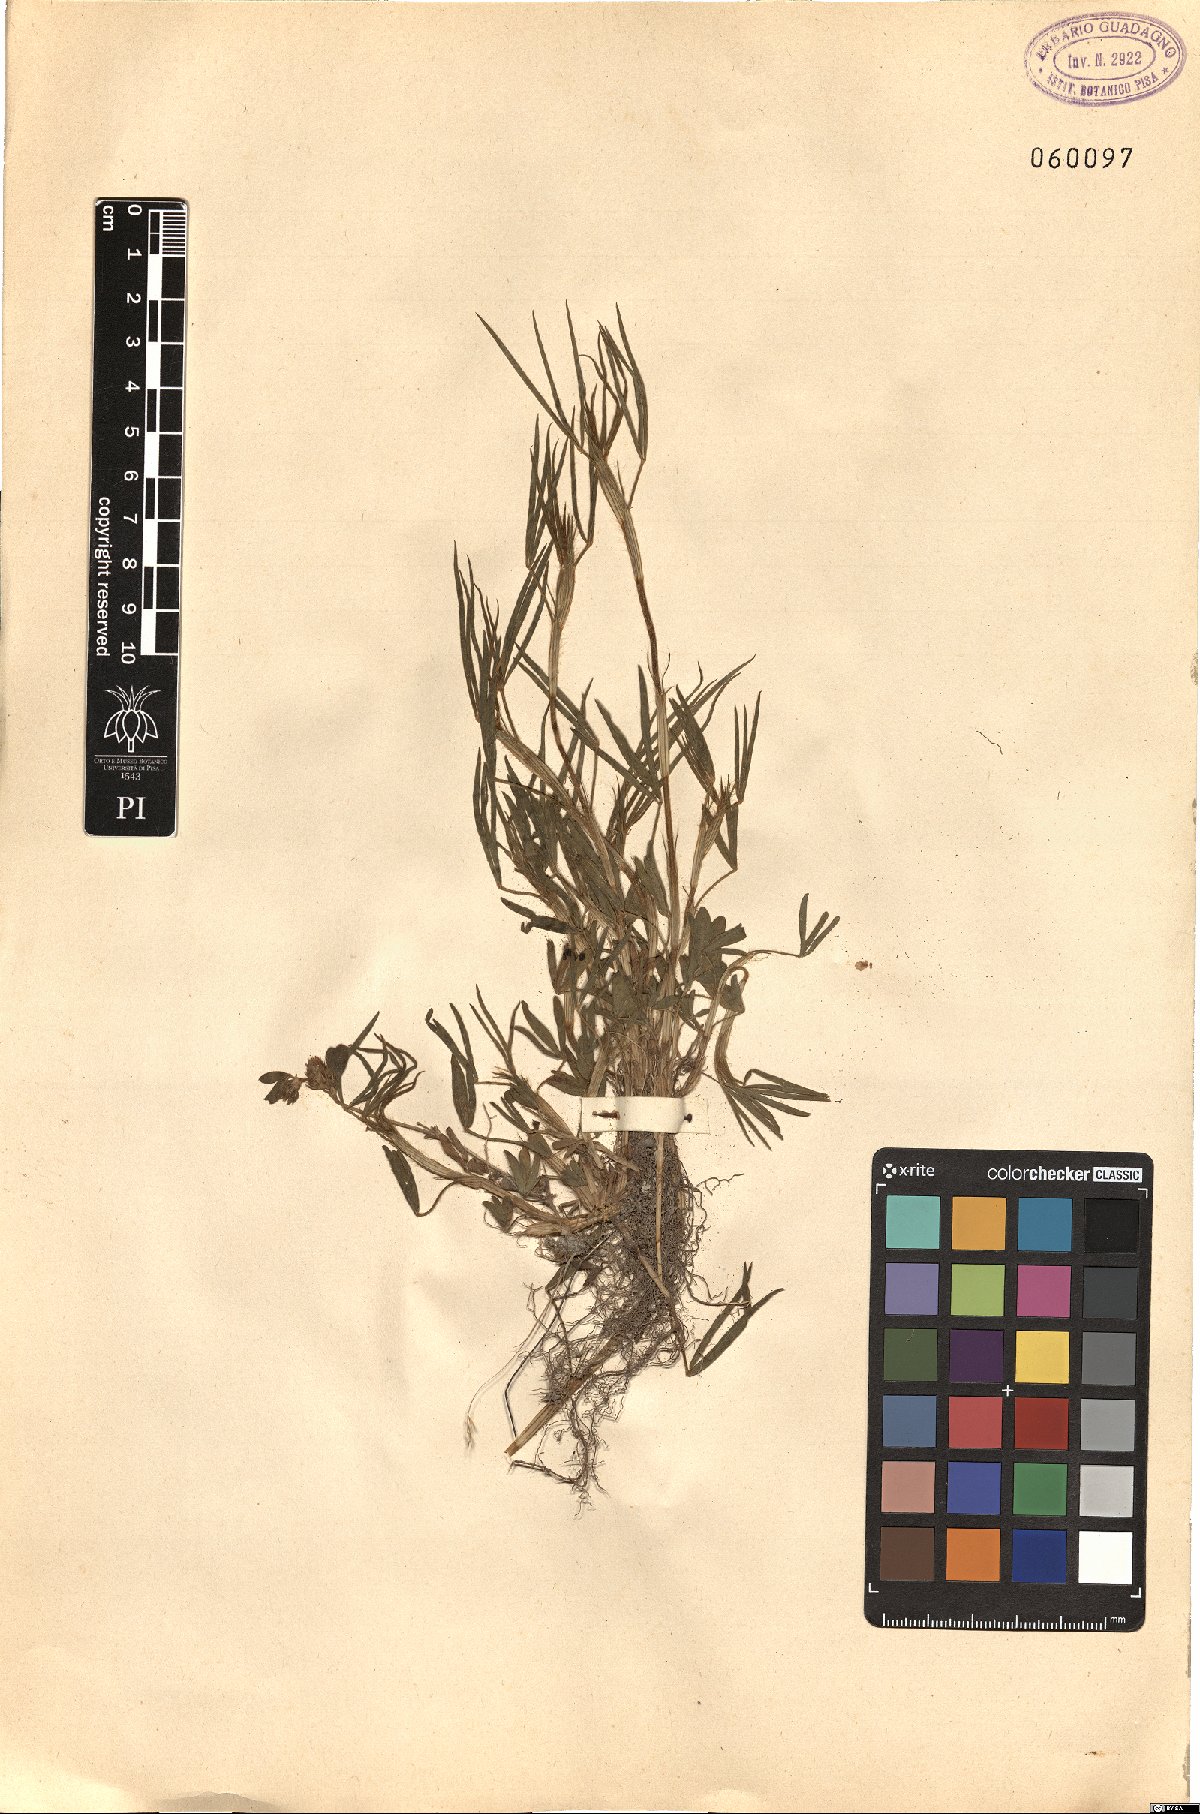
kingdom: Plantae
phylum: Tracheophyta
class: Magnoliopsida
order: Fabales
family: Fabaceae
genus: Trifolium
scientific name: Trifolium angustifolium
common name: Narrow clover
